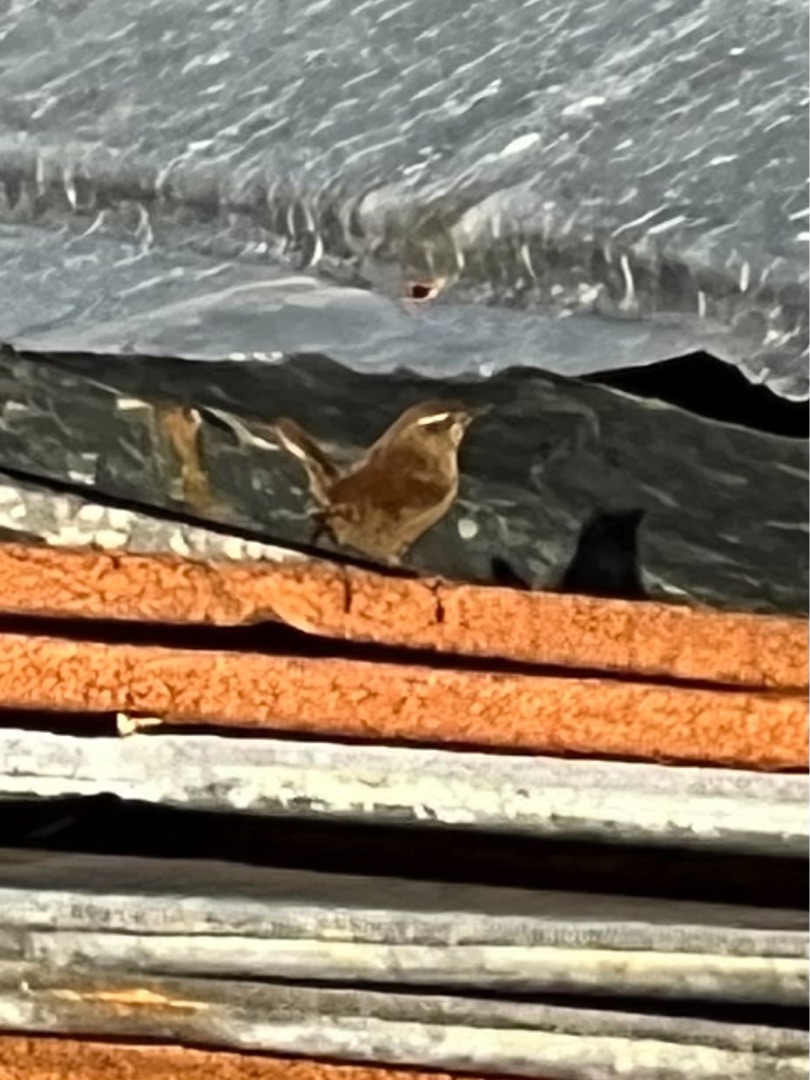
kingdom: Animalia
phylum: Chordata
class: Aves
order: Passeriformes
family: Troglodytidae
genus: Troglodytes
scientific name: Troglodytes troglodytes
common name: Gærdesmutte
